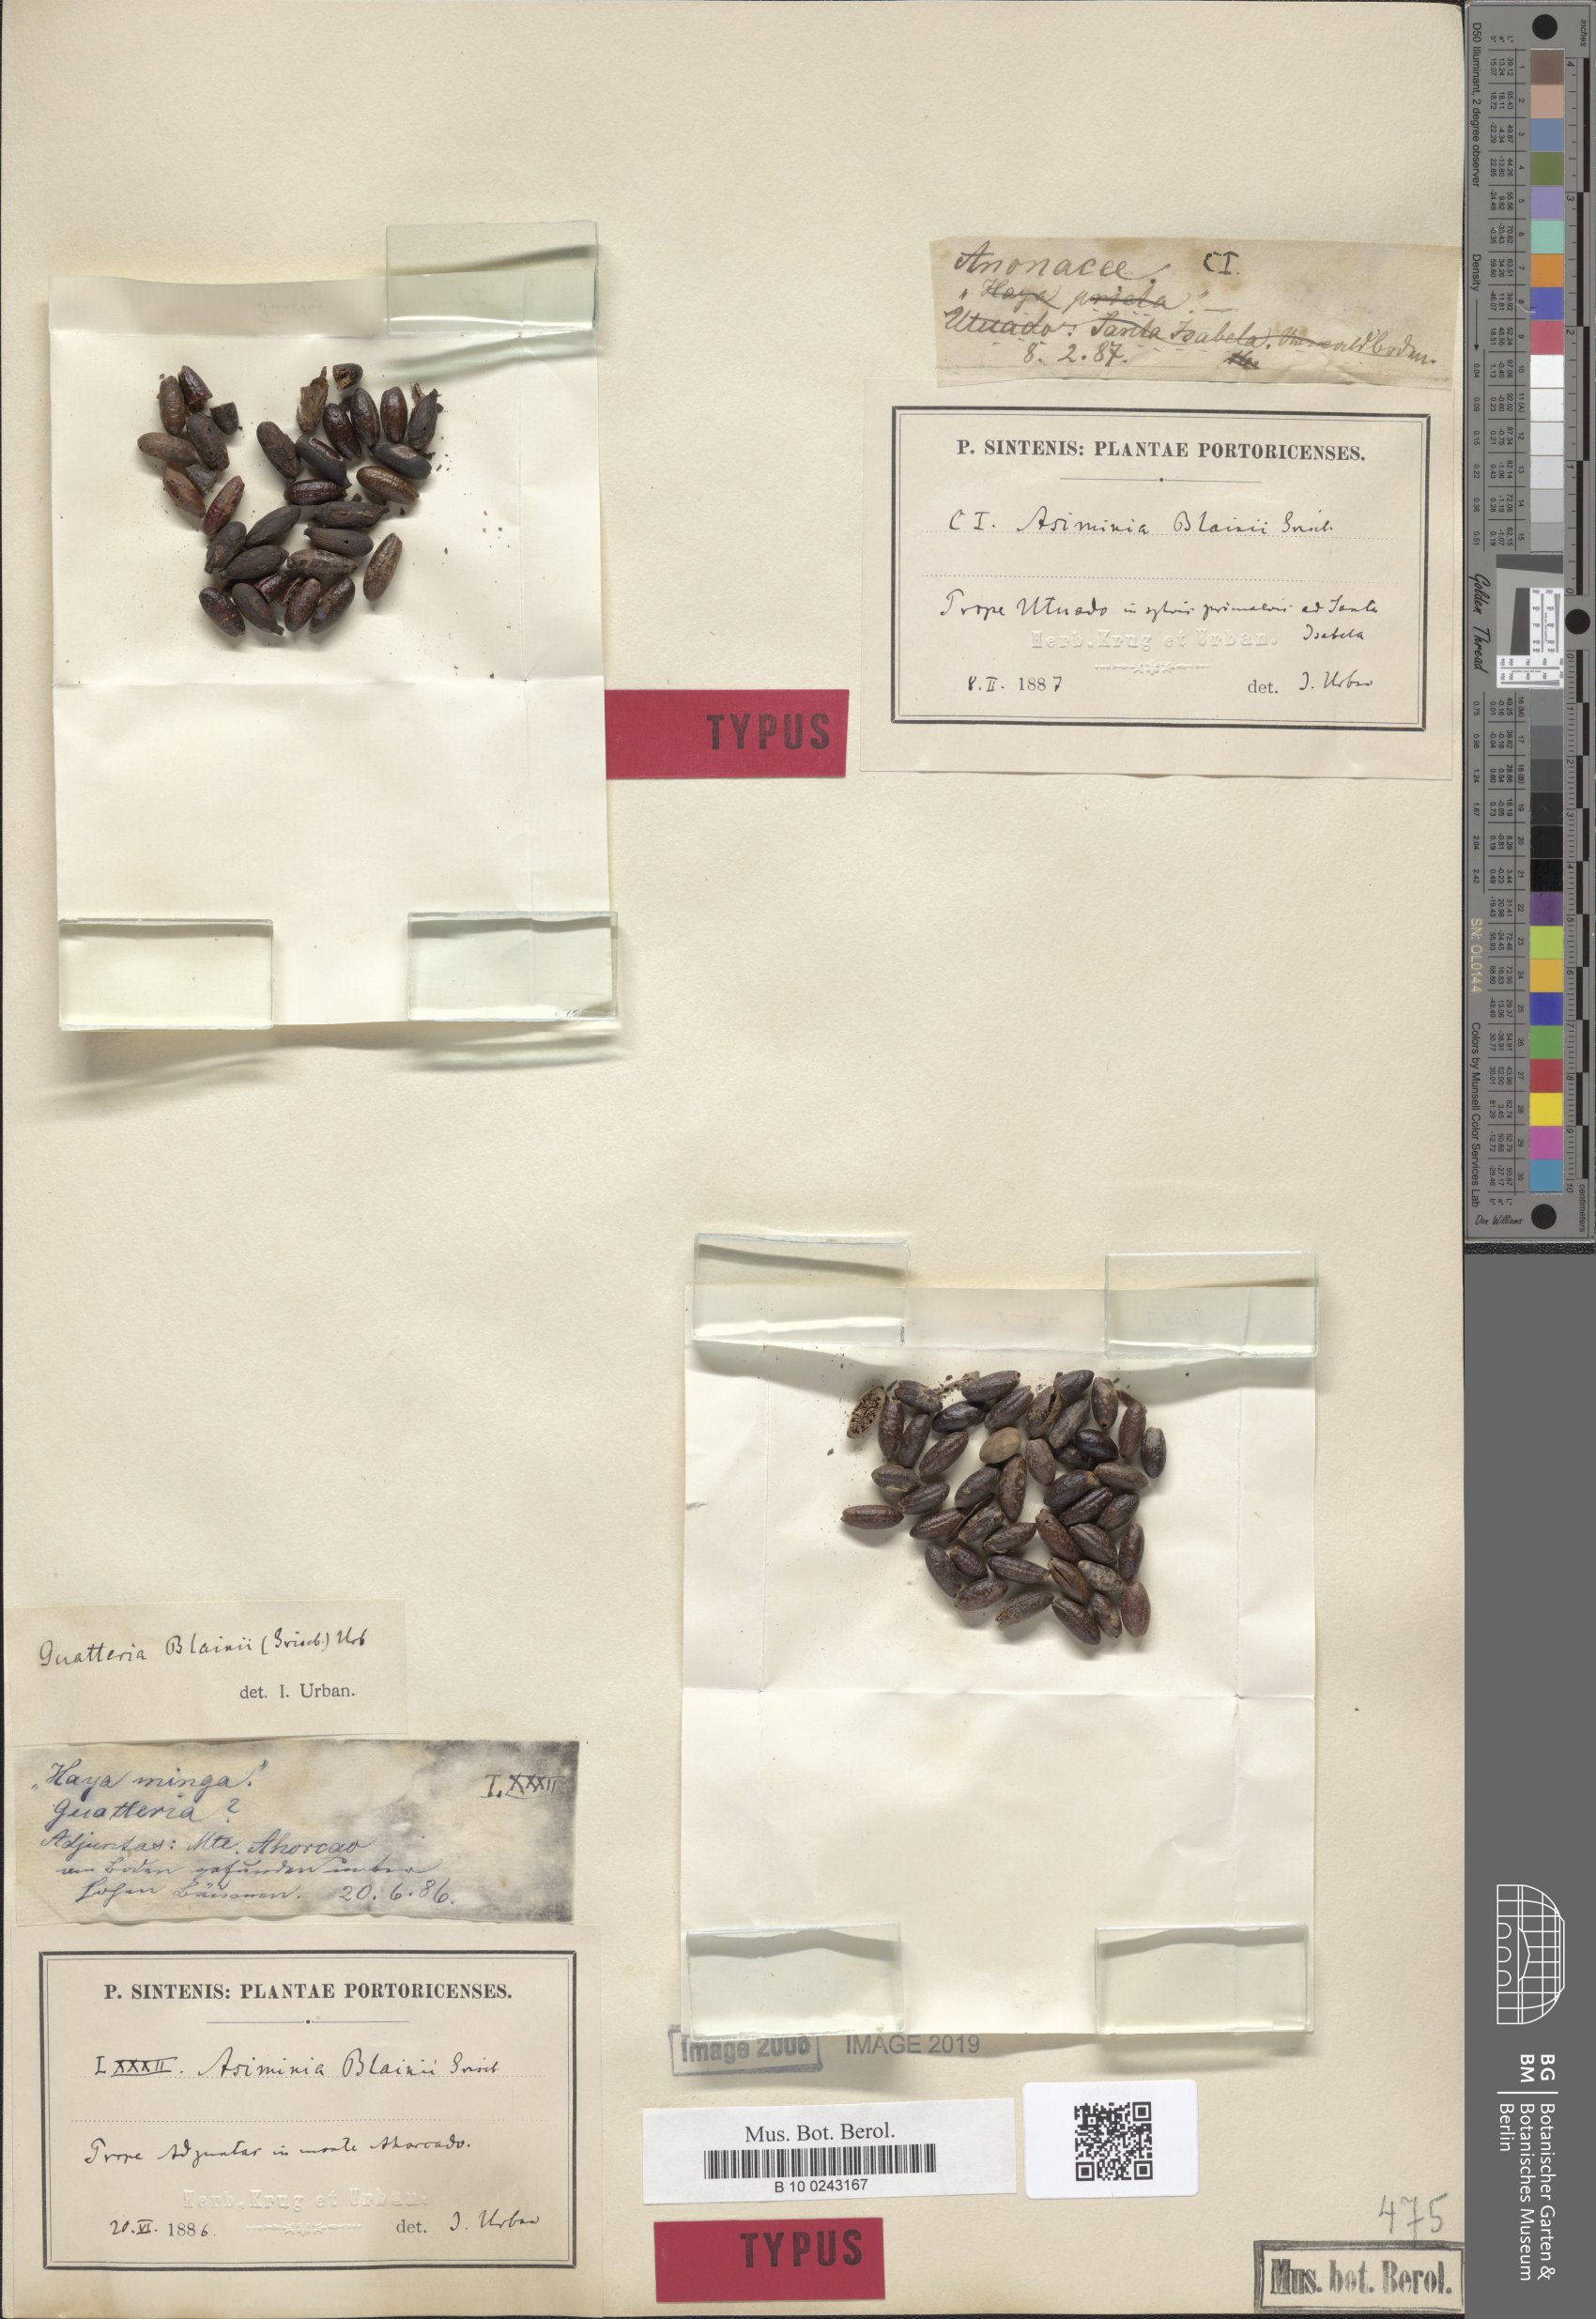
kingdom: Plantae
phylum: Tracheophyta
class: Magnoliopsida
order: Magnoliales
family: Annonaceae
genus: Guatteria
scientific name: Guatteria blainii
